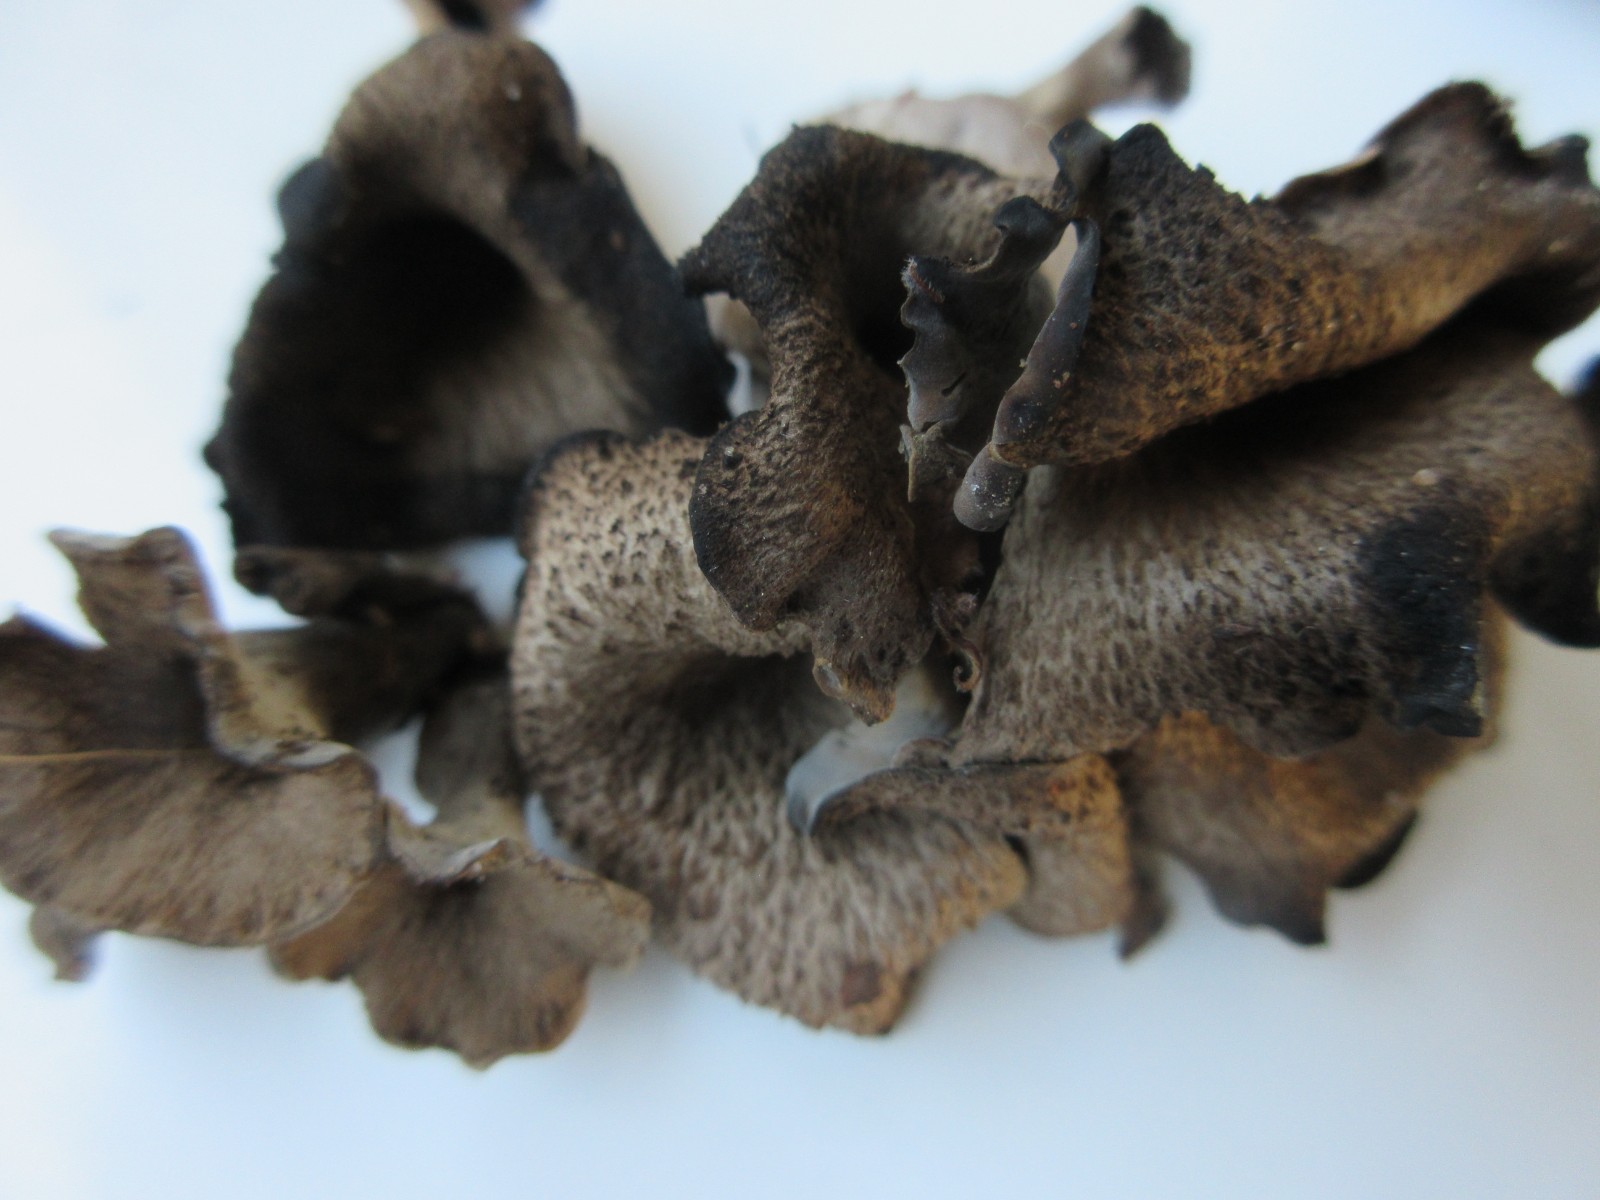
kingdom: Fungi
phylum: Basidiomycota
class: Agaricomycetes
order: Cantharellales
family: Hydnaceae
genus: Craterellus
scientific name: Craterellus cornucopioides
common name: trompetsvamp
